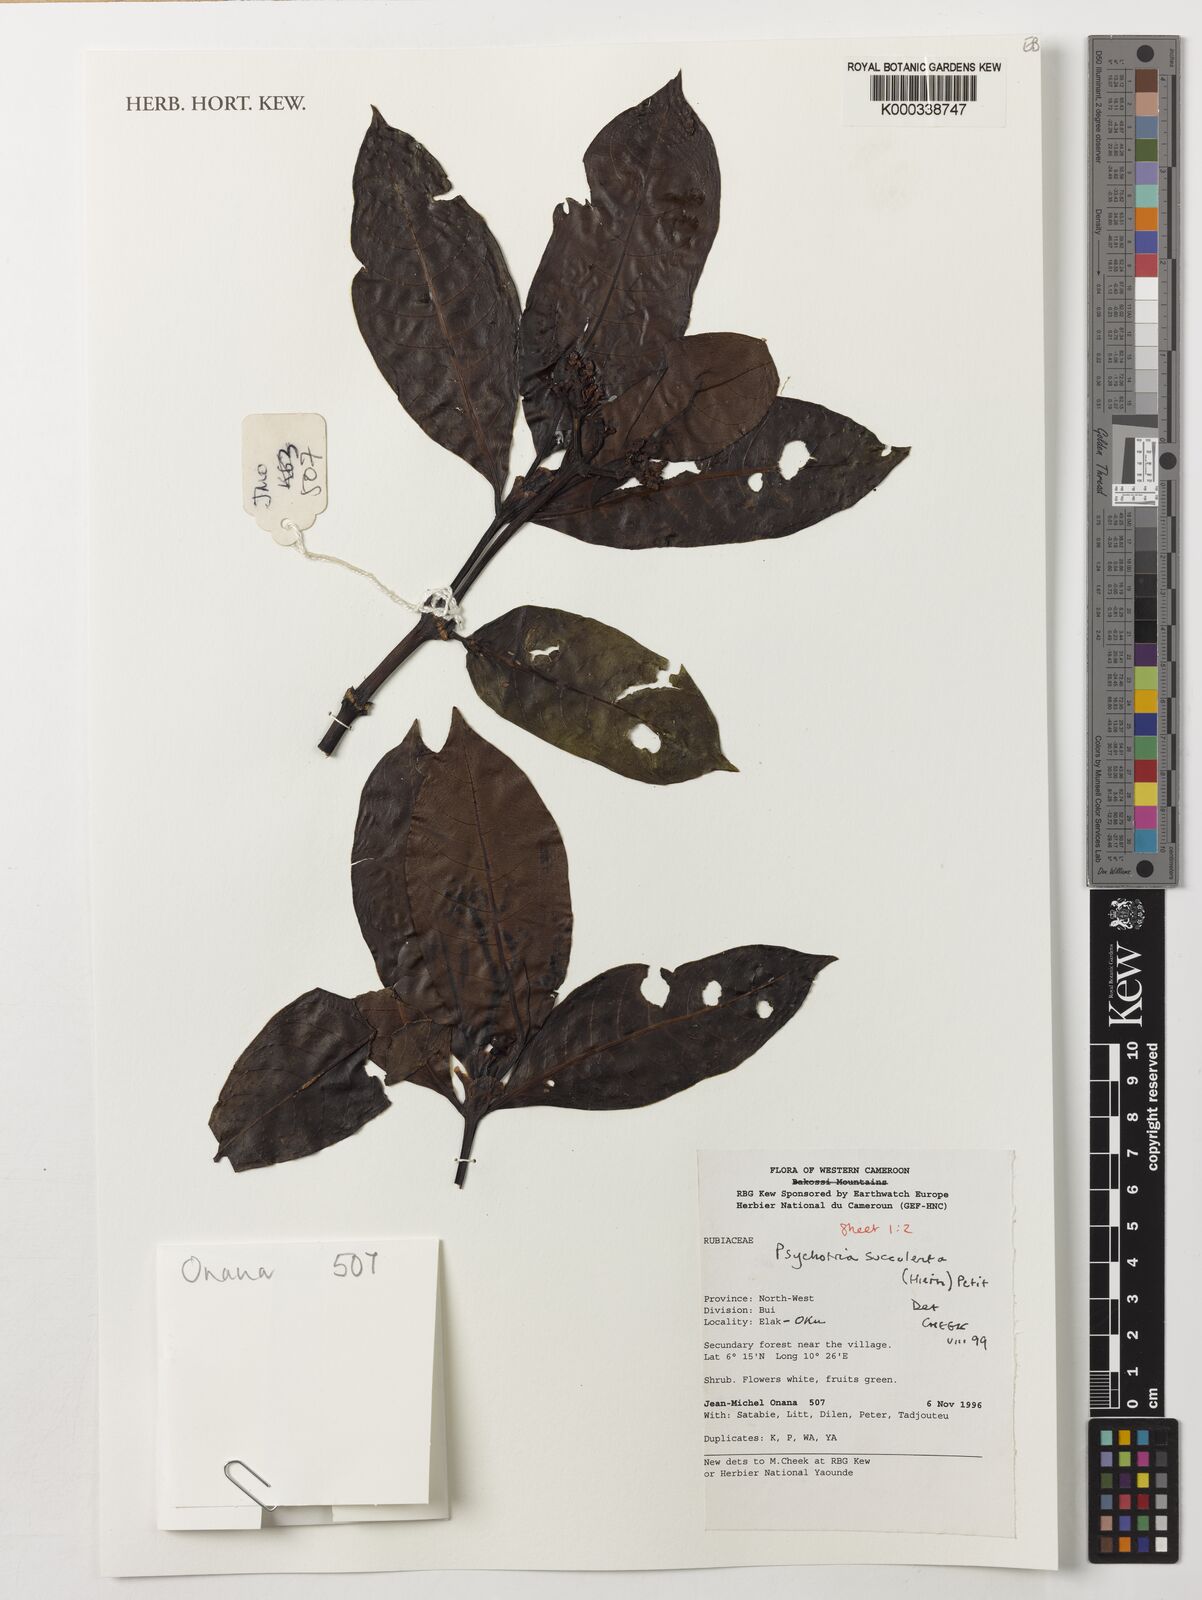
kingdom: Plantae
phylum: Tracheophyta
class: Magnoliopsida
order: Gentianales
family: Rubiaceae
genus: Psychotria
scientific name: Psychotria succulenta
